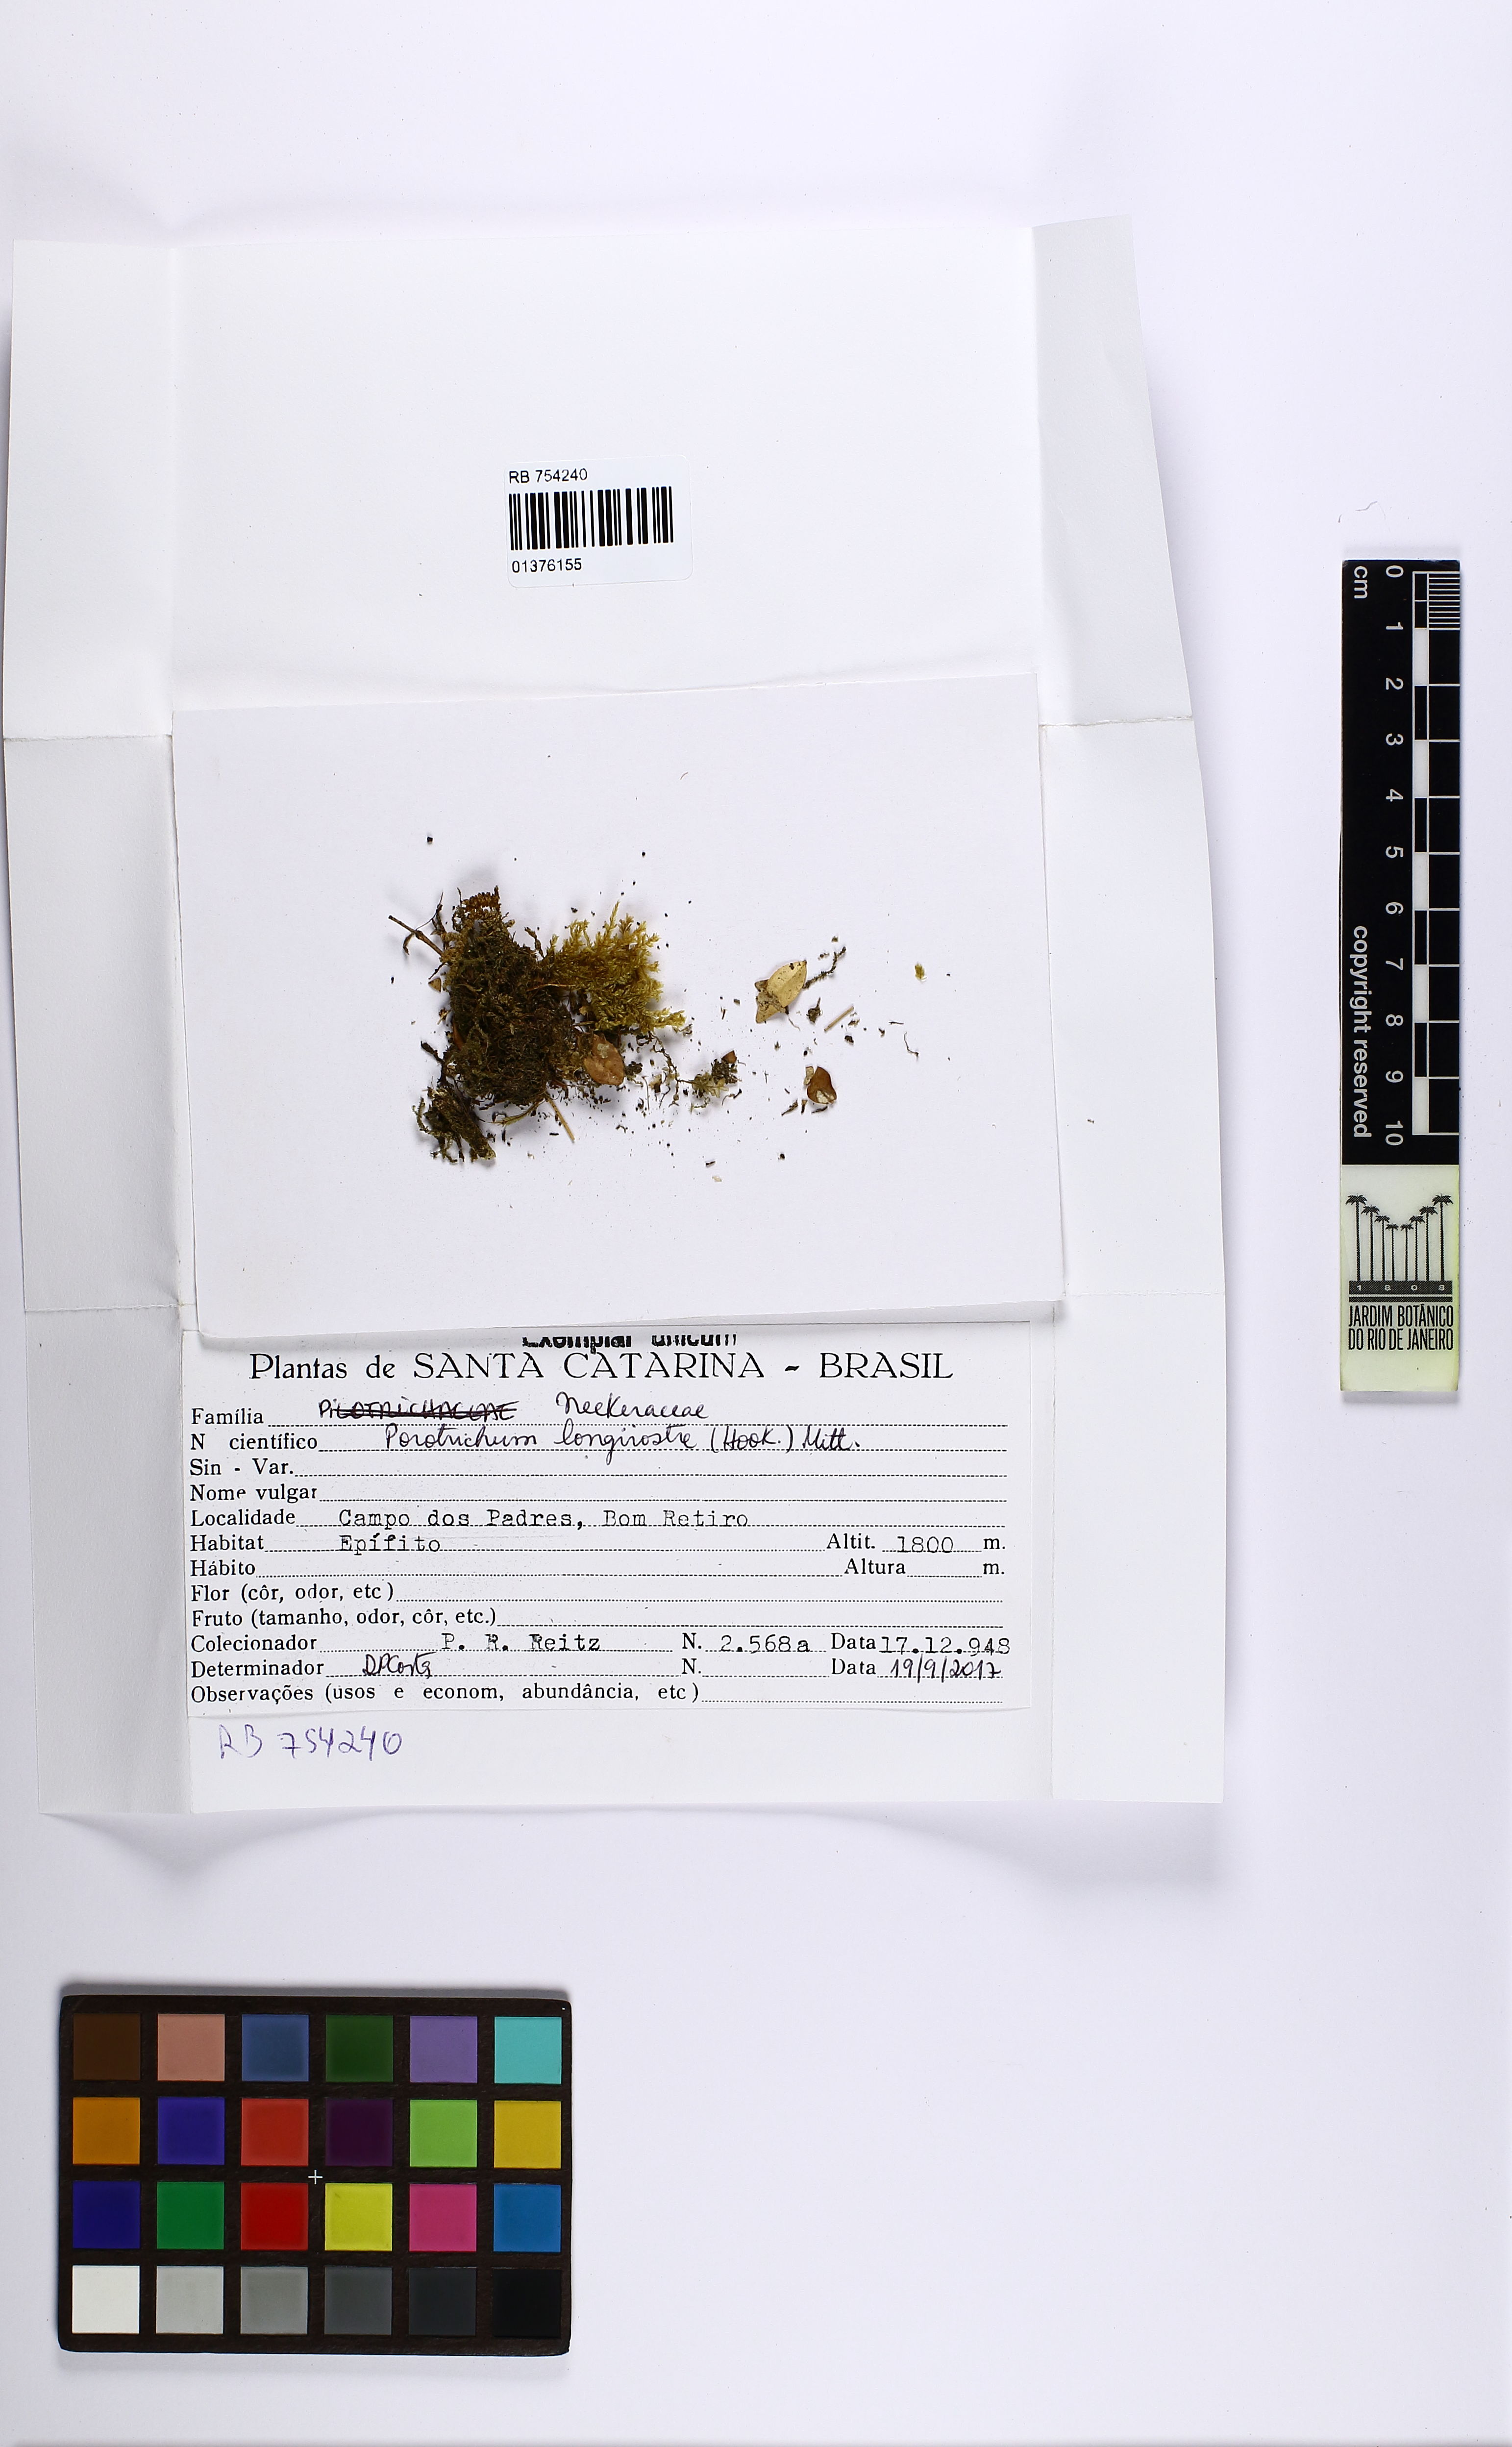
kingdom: Plantae
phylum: Bryophyta
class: Bryopsida
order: Hypnales
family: Neckeraceae
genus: Porotrichum
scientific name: Porotrichum longirostre
